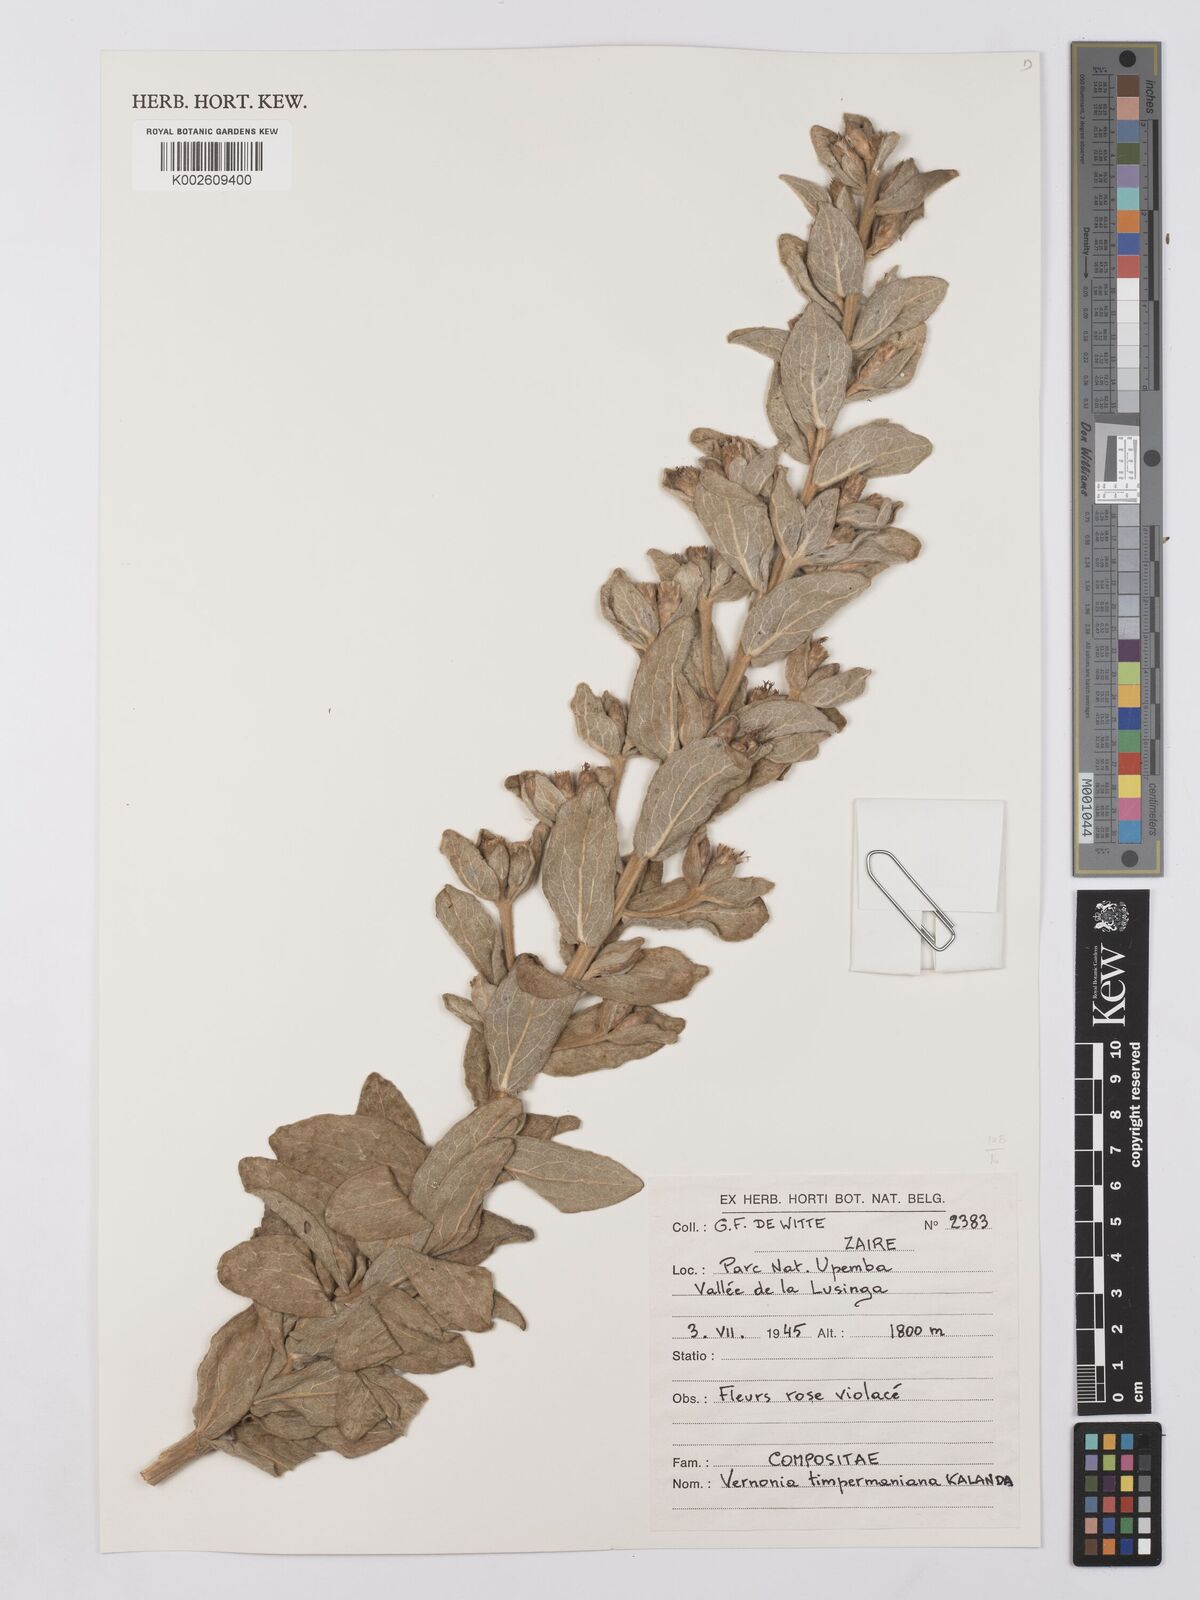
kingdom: Plantae
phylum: Tracheophyta
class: Magnoliopsida
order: Asterales
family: Asteraceae
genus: Vernonia
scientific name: Vernonia timpermaniana
